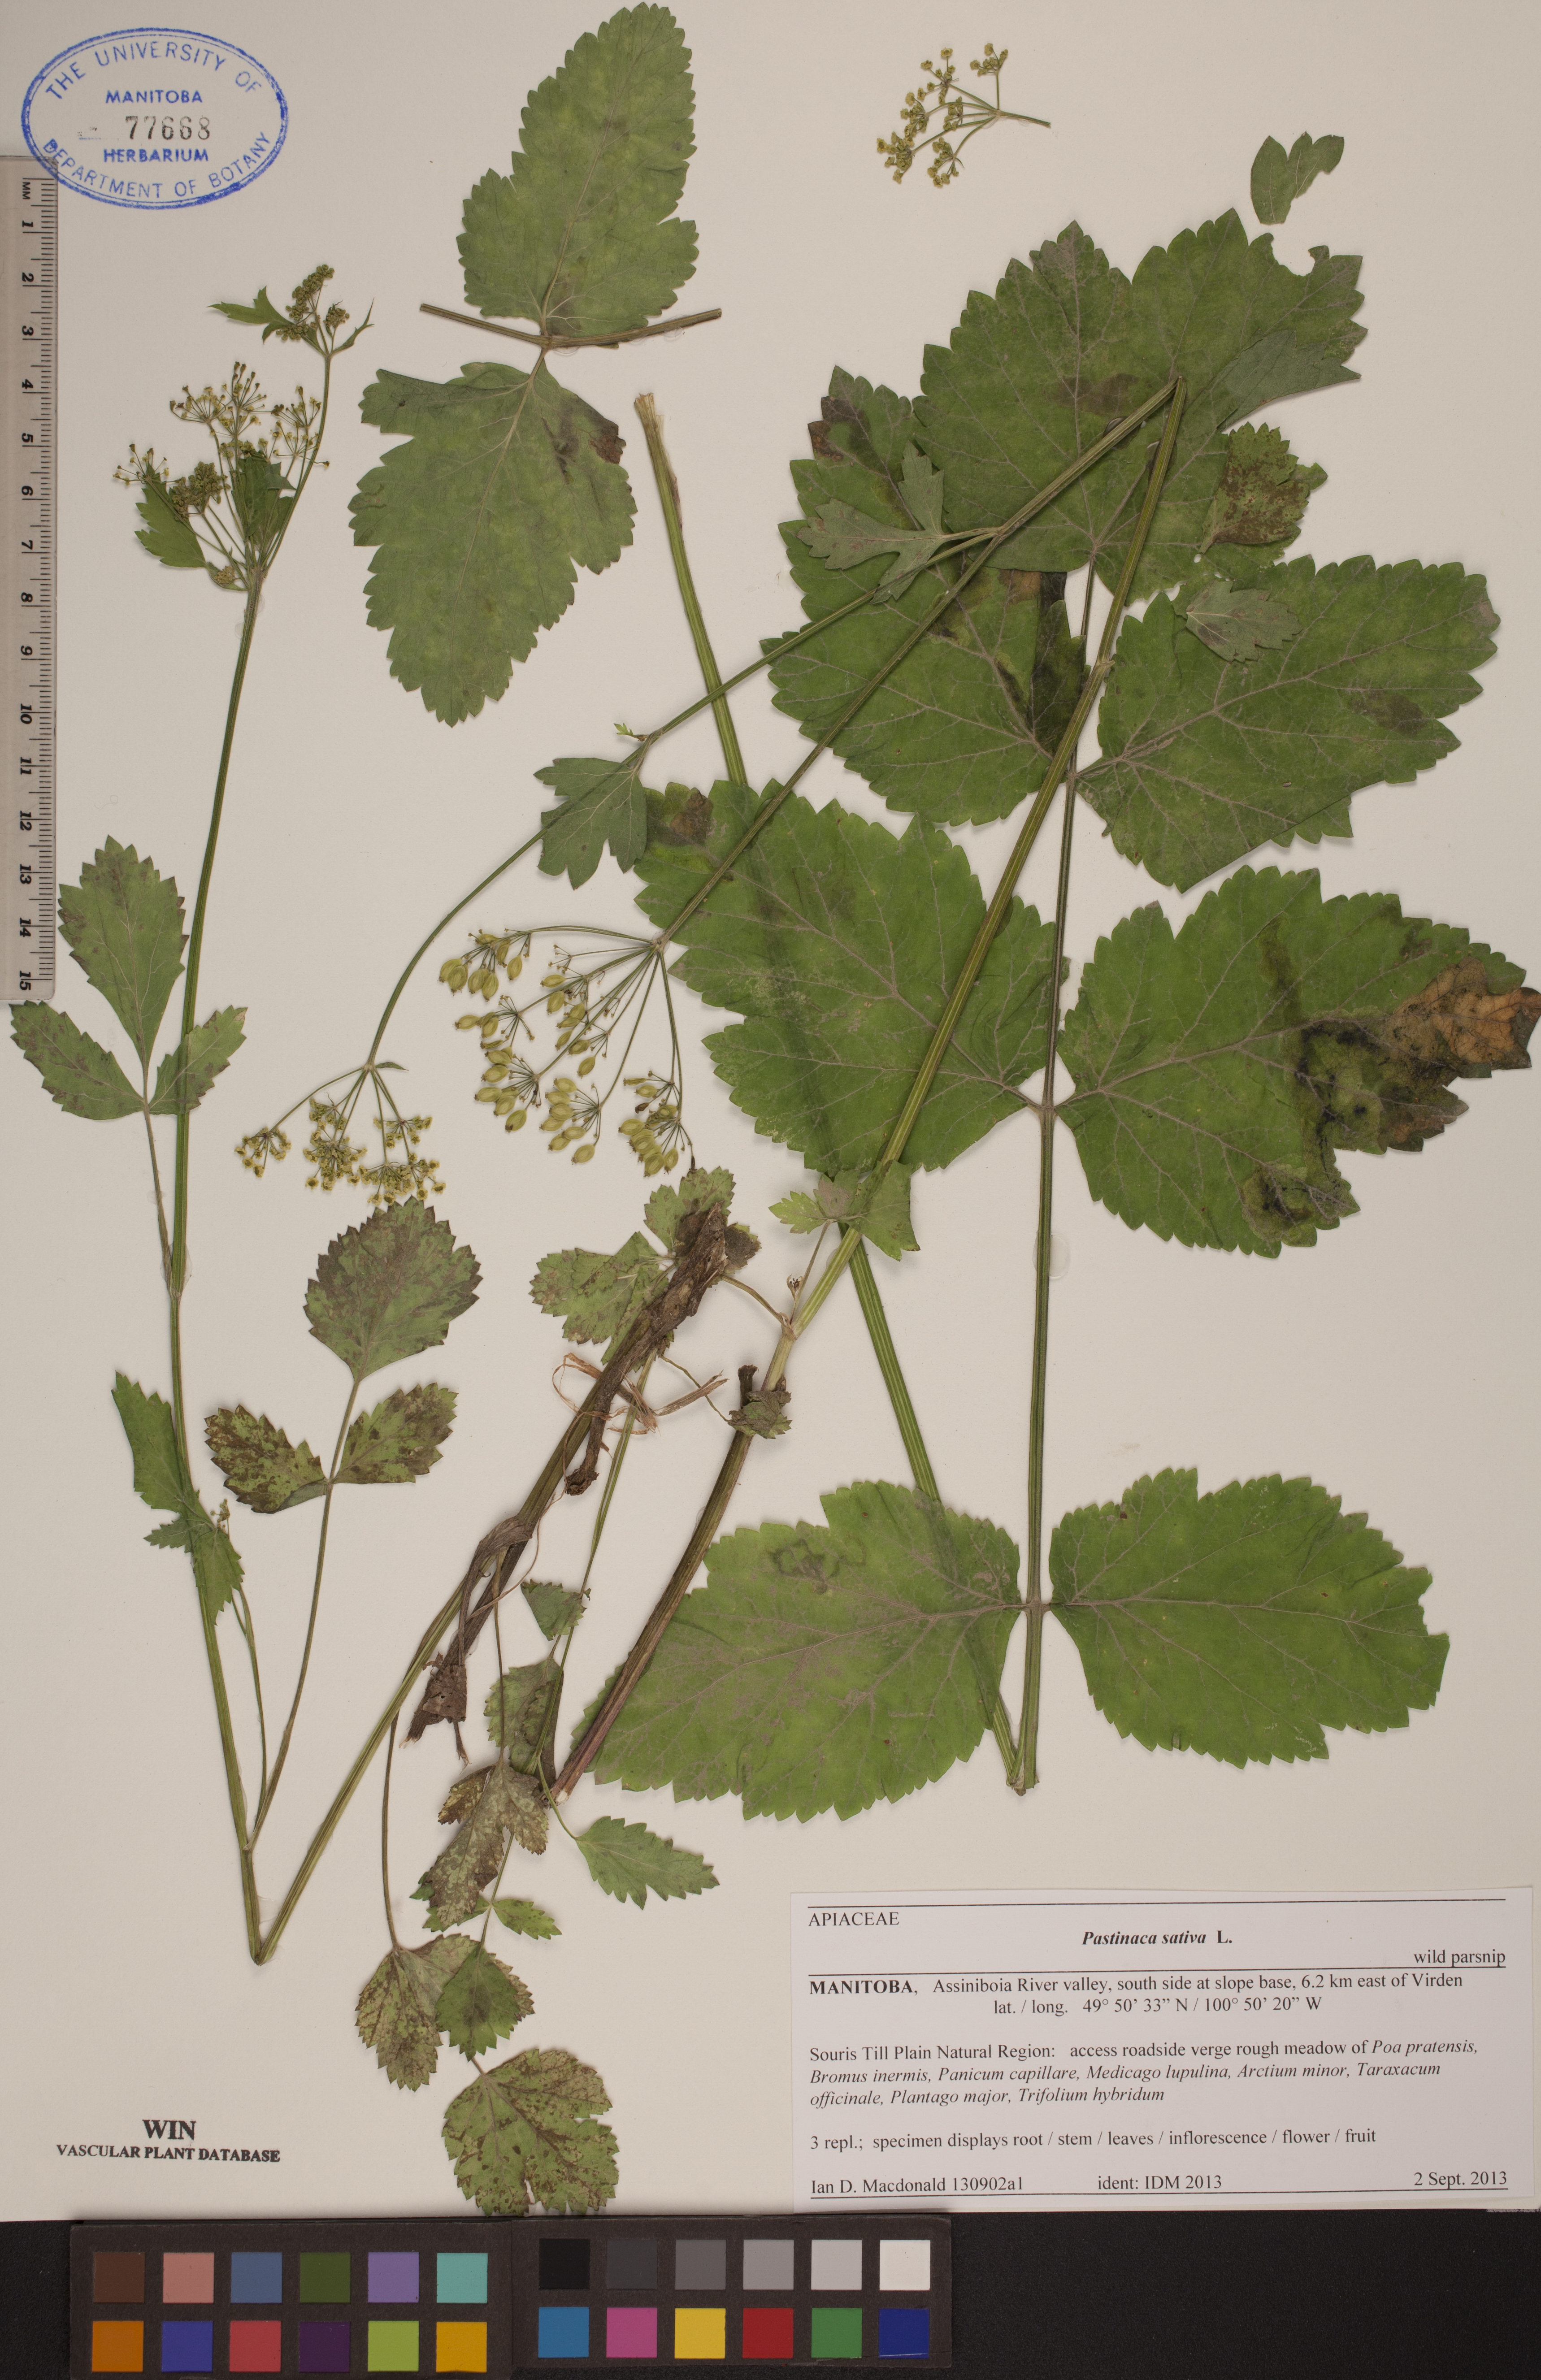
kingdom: Plantae
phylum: Tracheophyta
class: Magnoliopsida
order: Apiales
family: Apiaceae
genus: Pastinaca
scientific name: Pastinaca sativa
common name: Wild parsnip
